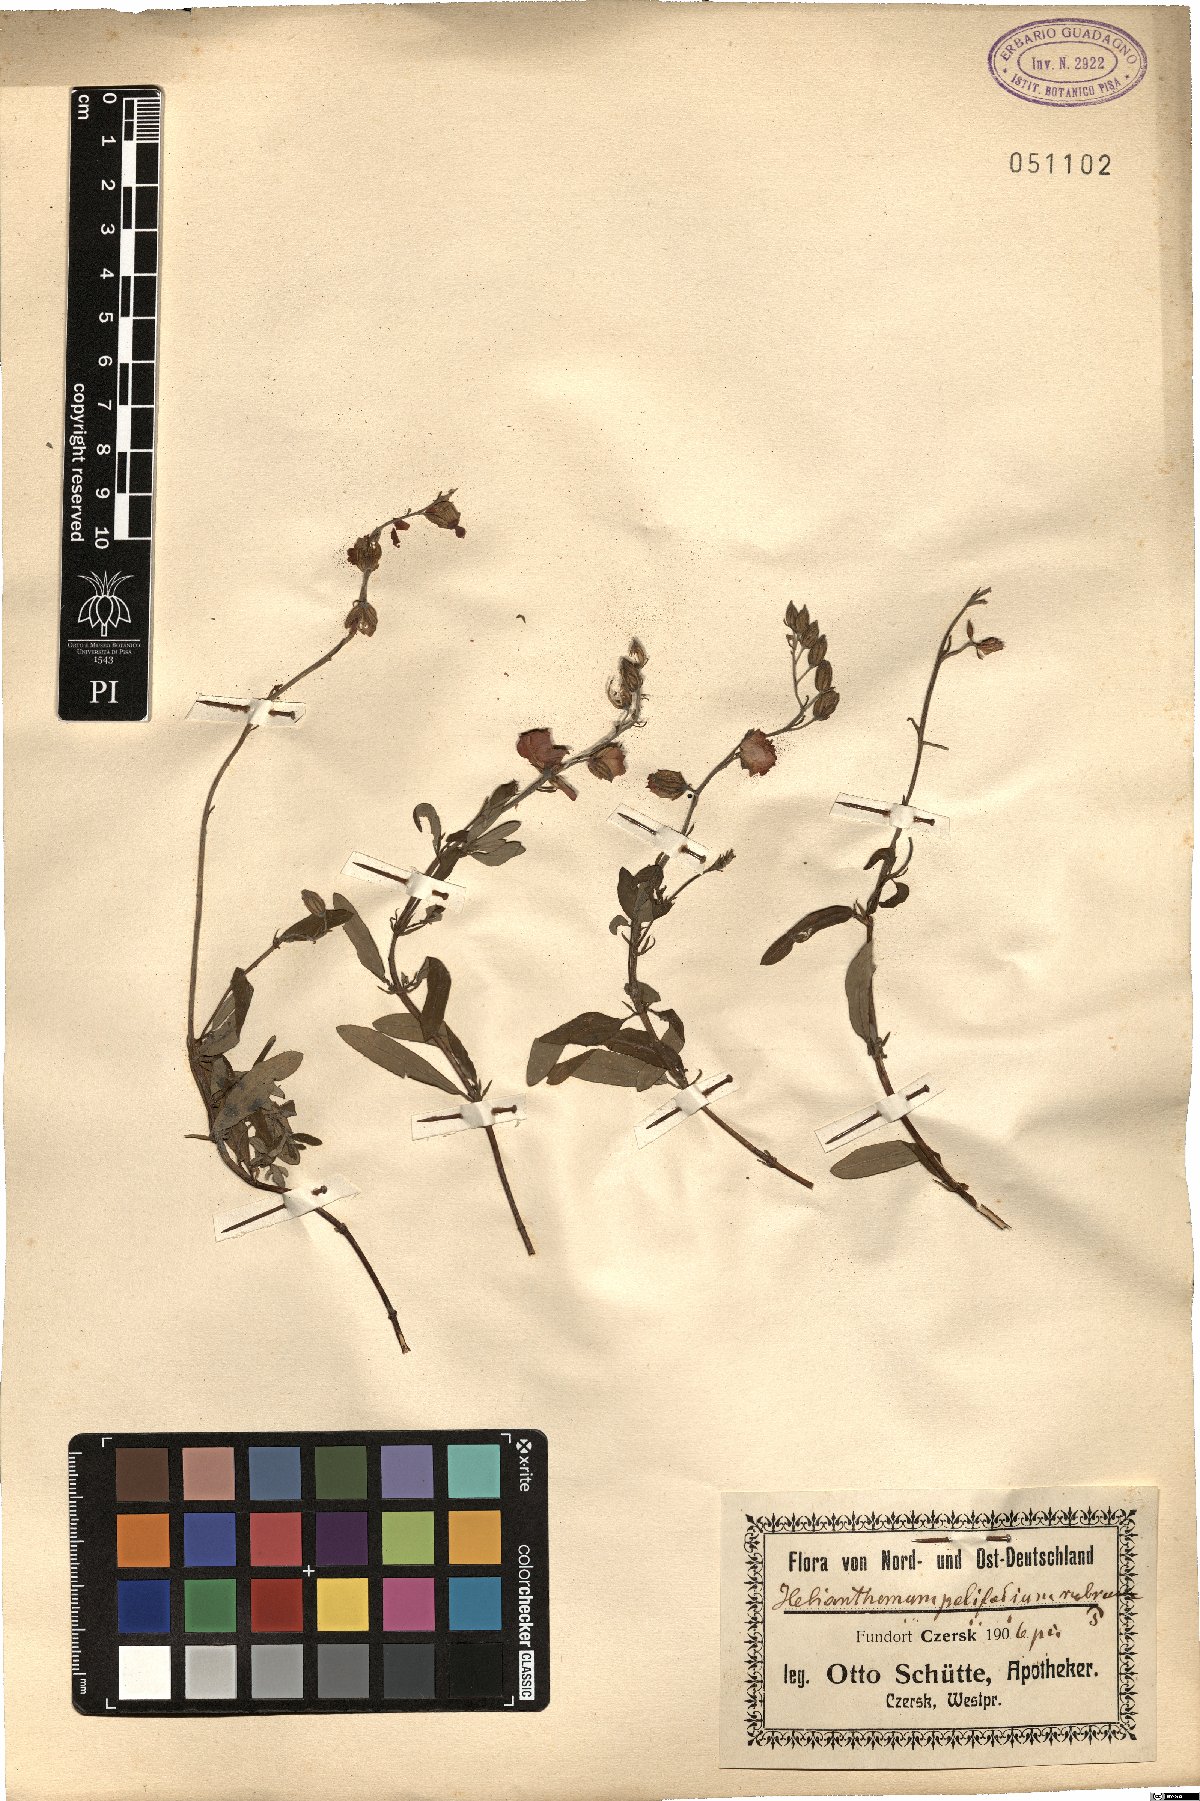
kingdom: Plantae
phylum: Tracheophyta
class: Magnoliopsida
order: Malvales
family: Cistaceae
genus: Helianthemum
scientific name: Helianthemum apenninum
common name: White rock-rose
